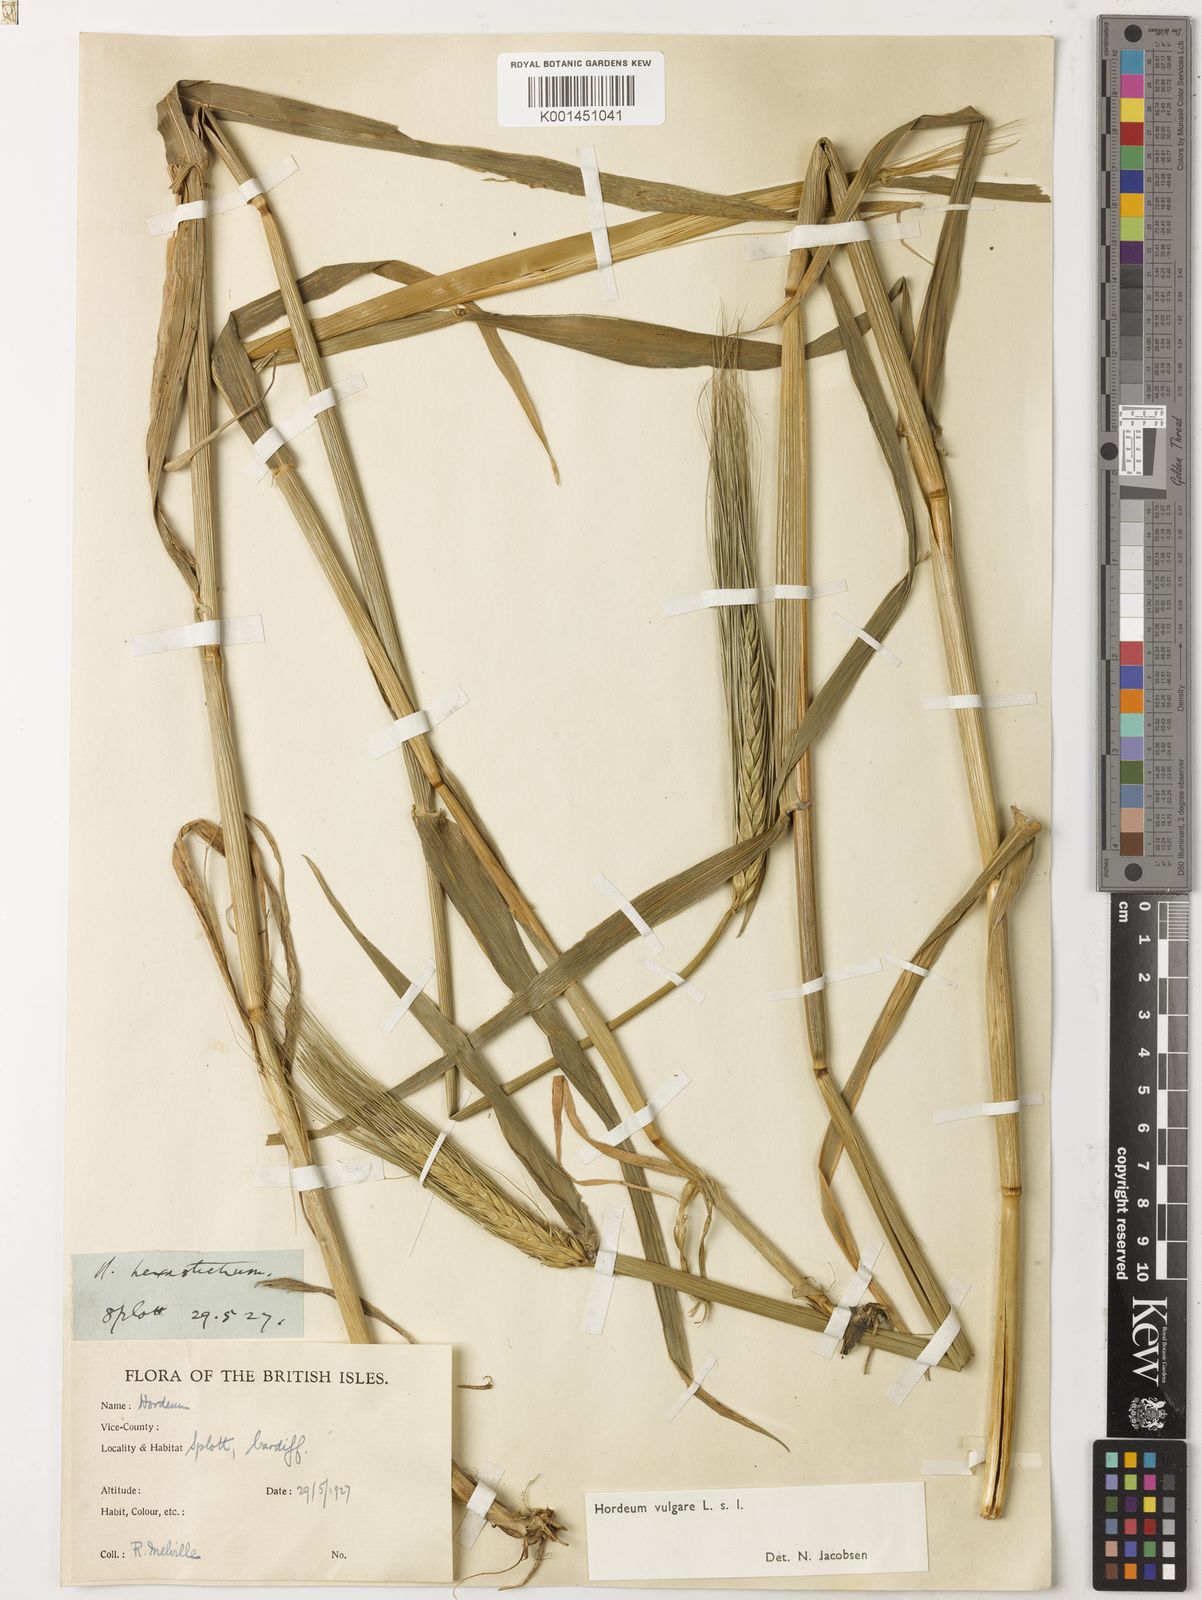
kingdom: Plantae
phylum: Tracheophyta
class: Liliopsida
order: Poales
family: Poaceae
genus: Hordeum
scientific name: Hordeum vulgare
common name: Common barley
